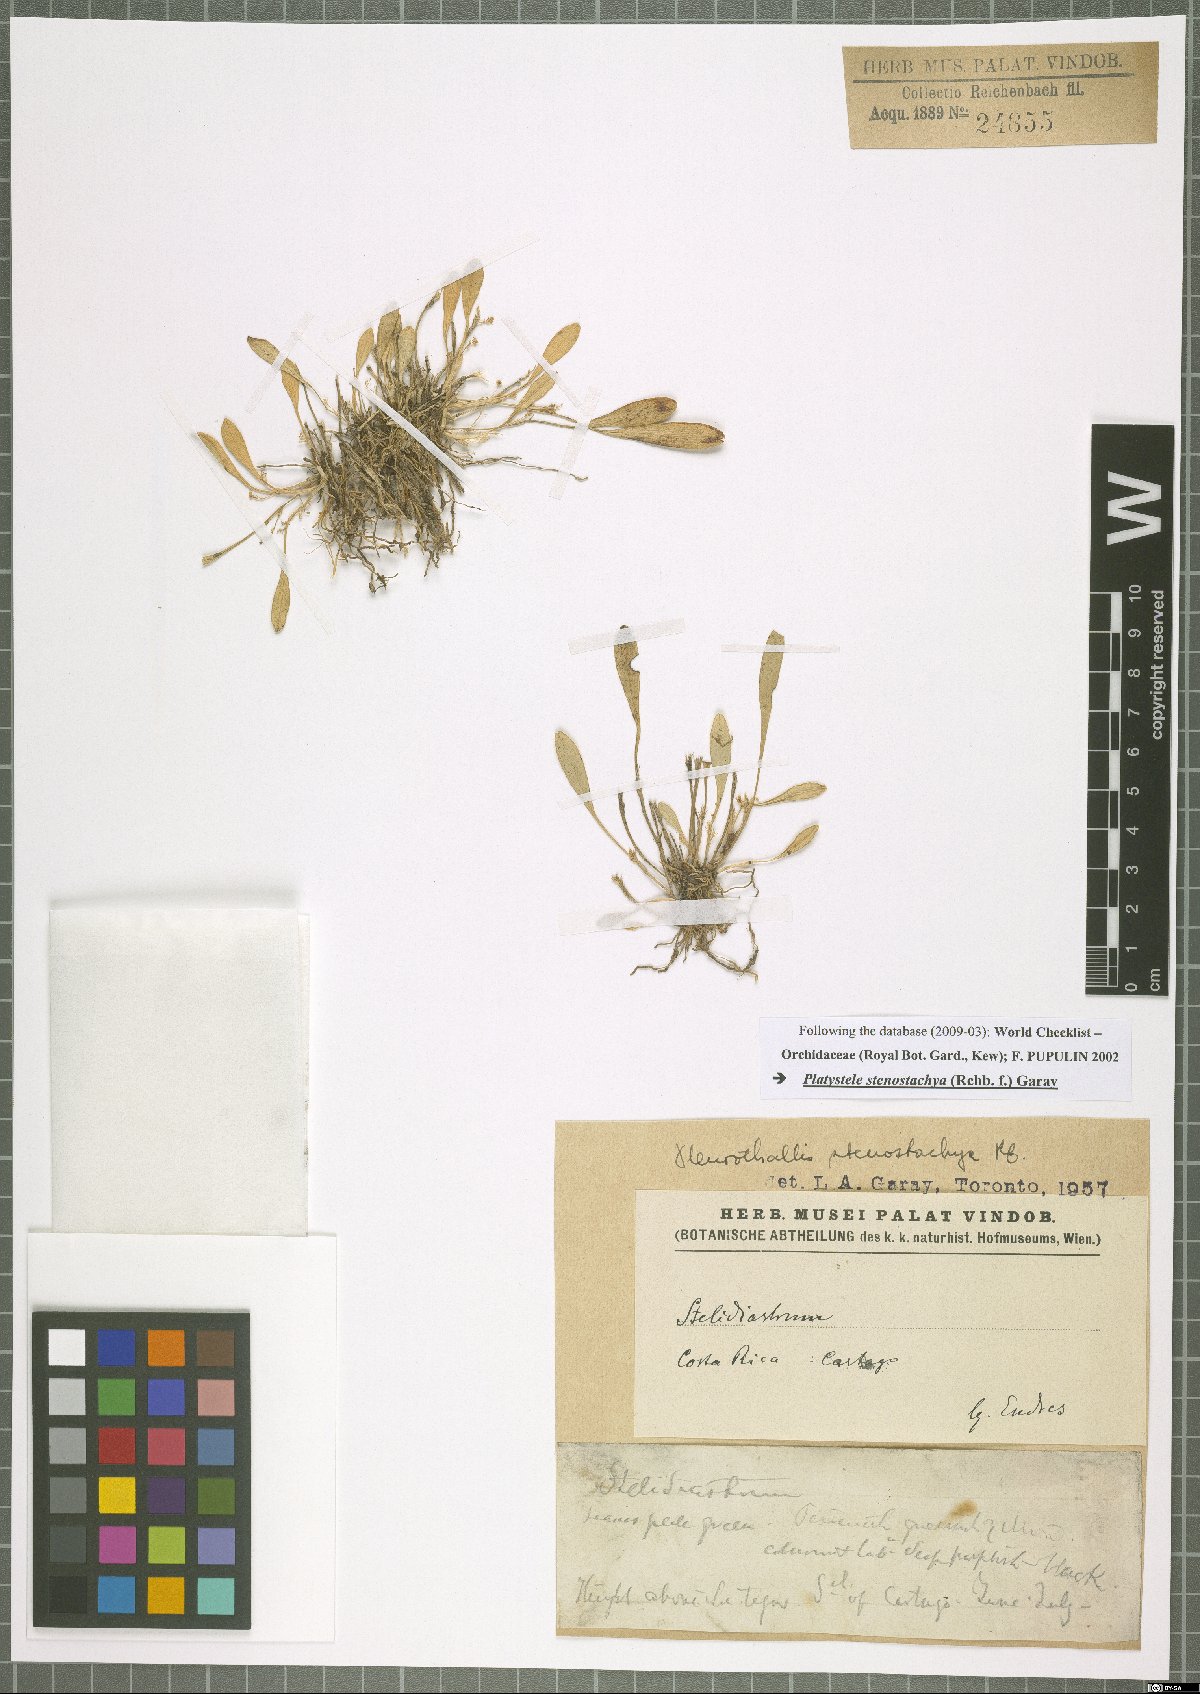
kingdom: Plantae
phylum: Tracheophyta
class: Liliopsida
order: Asparagales
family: Orchidaceae
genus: Platystele
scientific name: Platystele stenostachya
